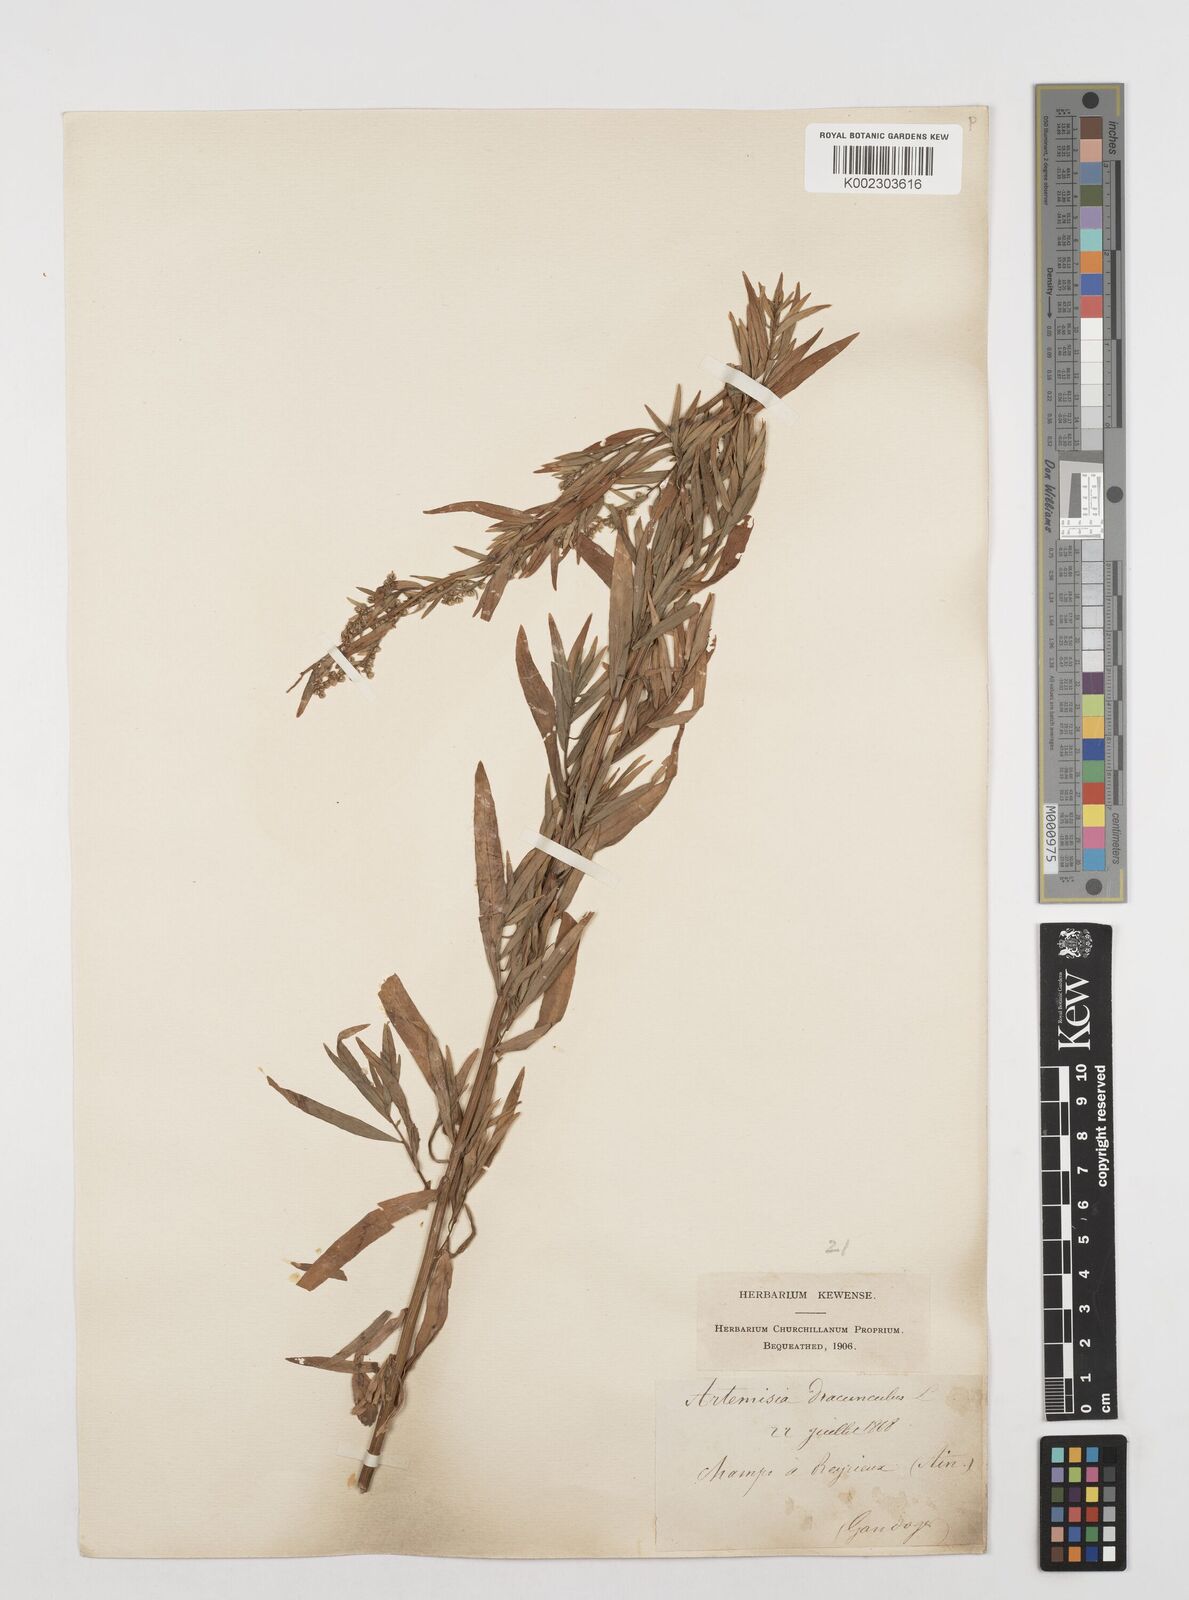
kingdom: Plantae
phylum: Tracheophyta
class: Magnoliopsida
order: Asterales
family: Asteraceae
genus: Artemisia
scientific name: Artemisia dracunculus
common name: Tarragon
